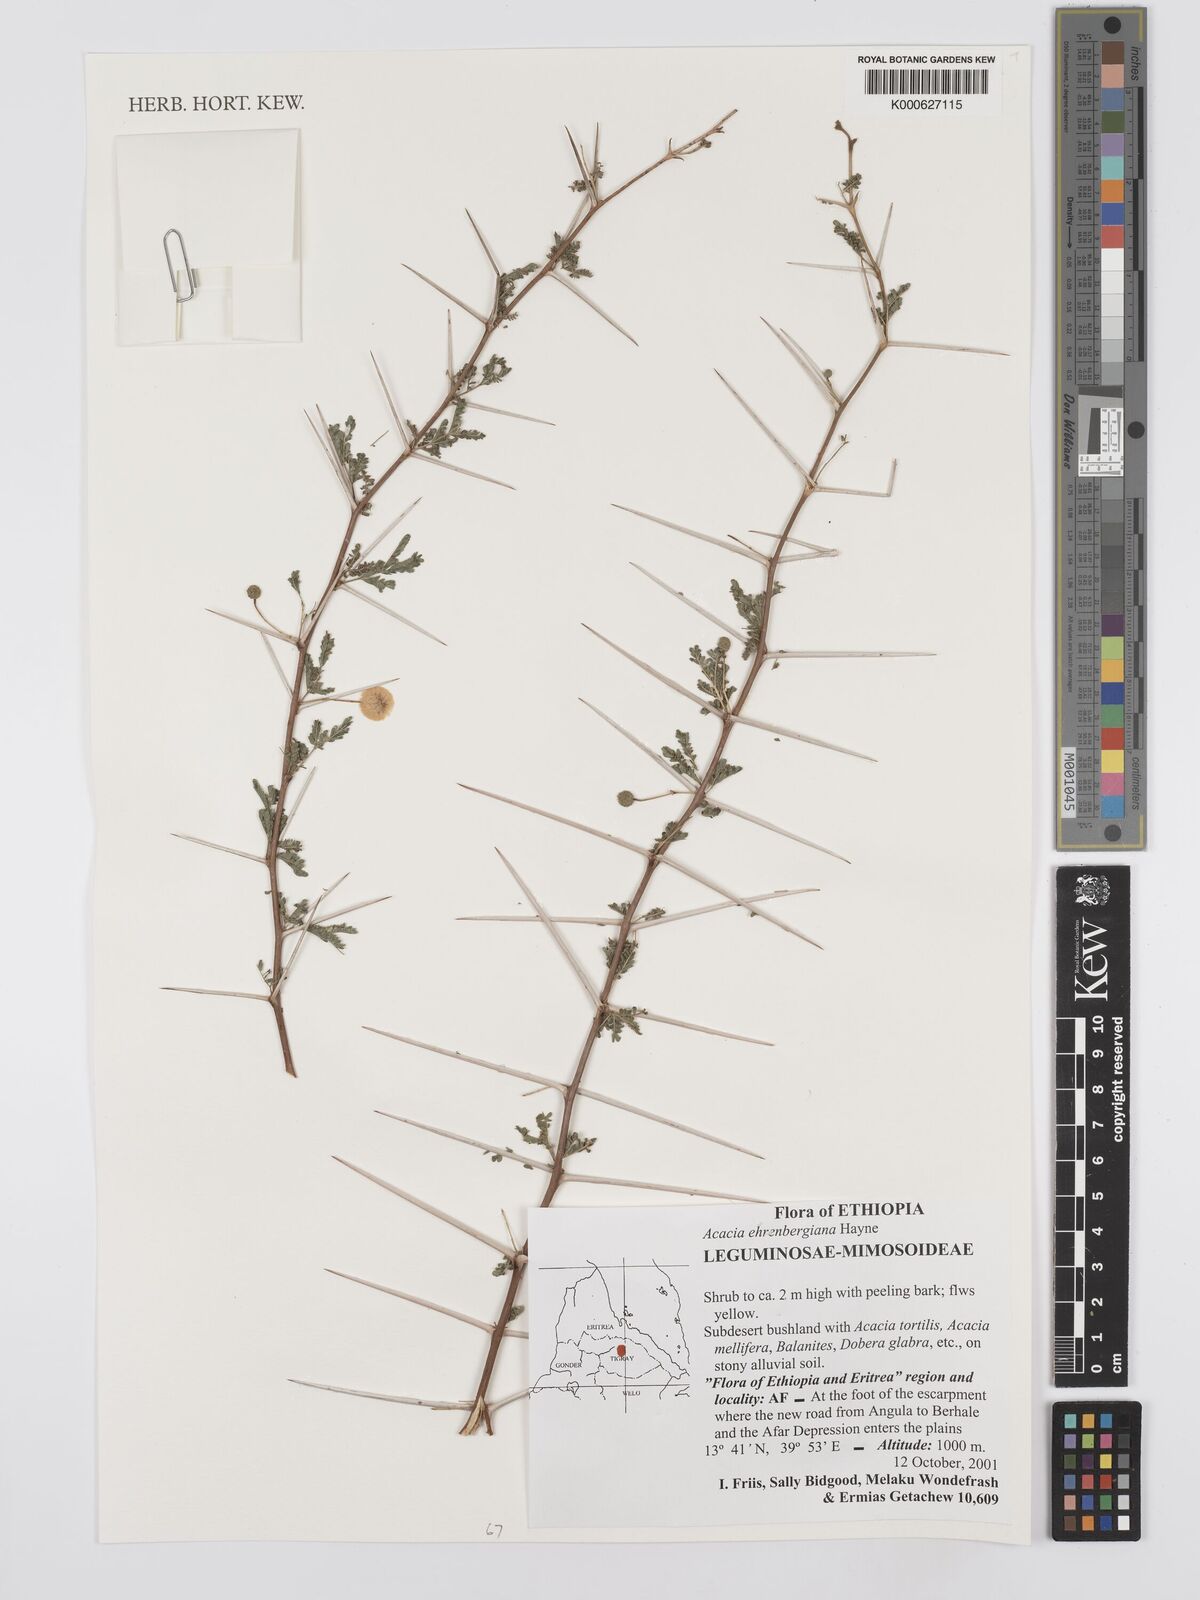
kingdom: Plantae
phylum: Tracheophyta
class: Magnoliopsida
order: Fabales
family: Fabaceae
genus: Vachellia
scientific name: Vachellia flava
